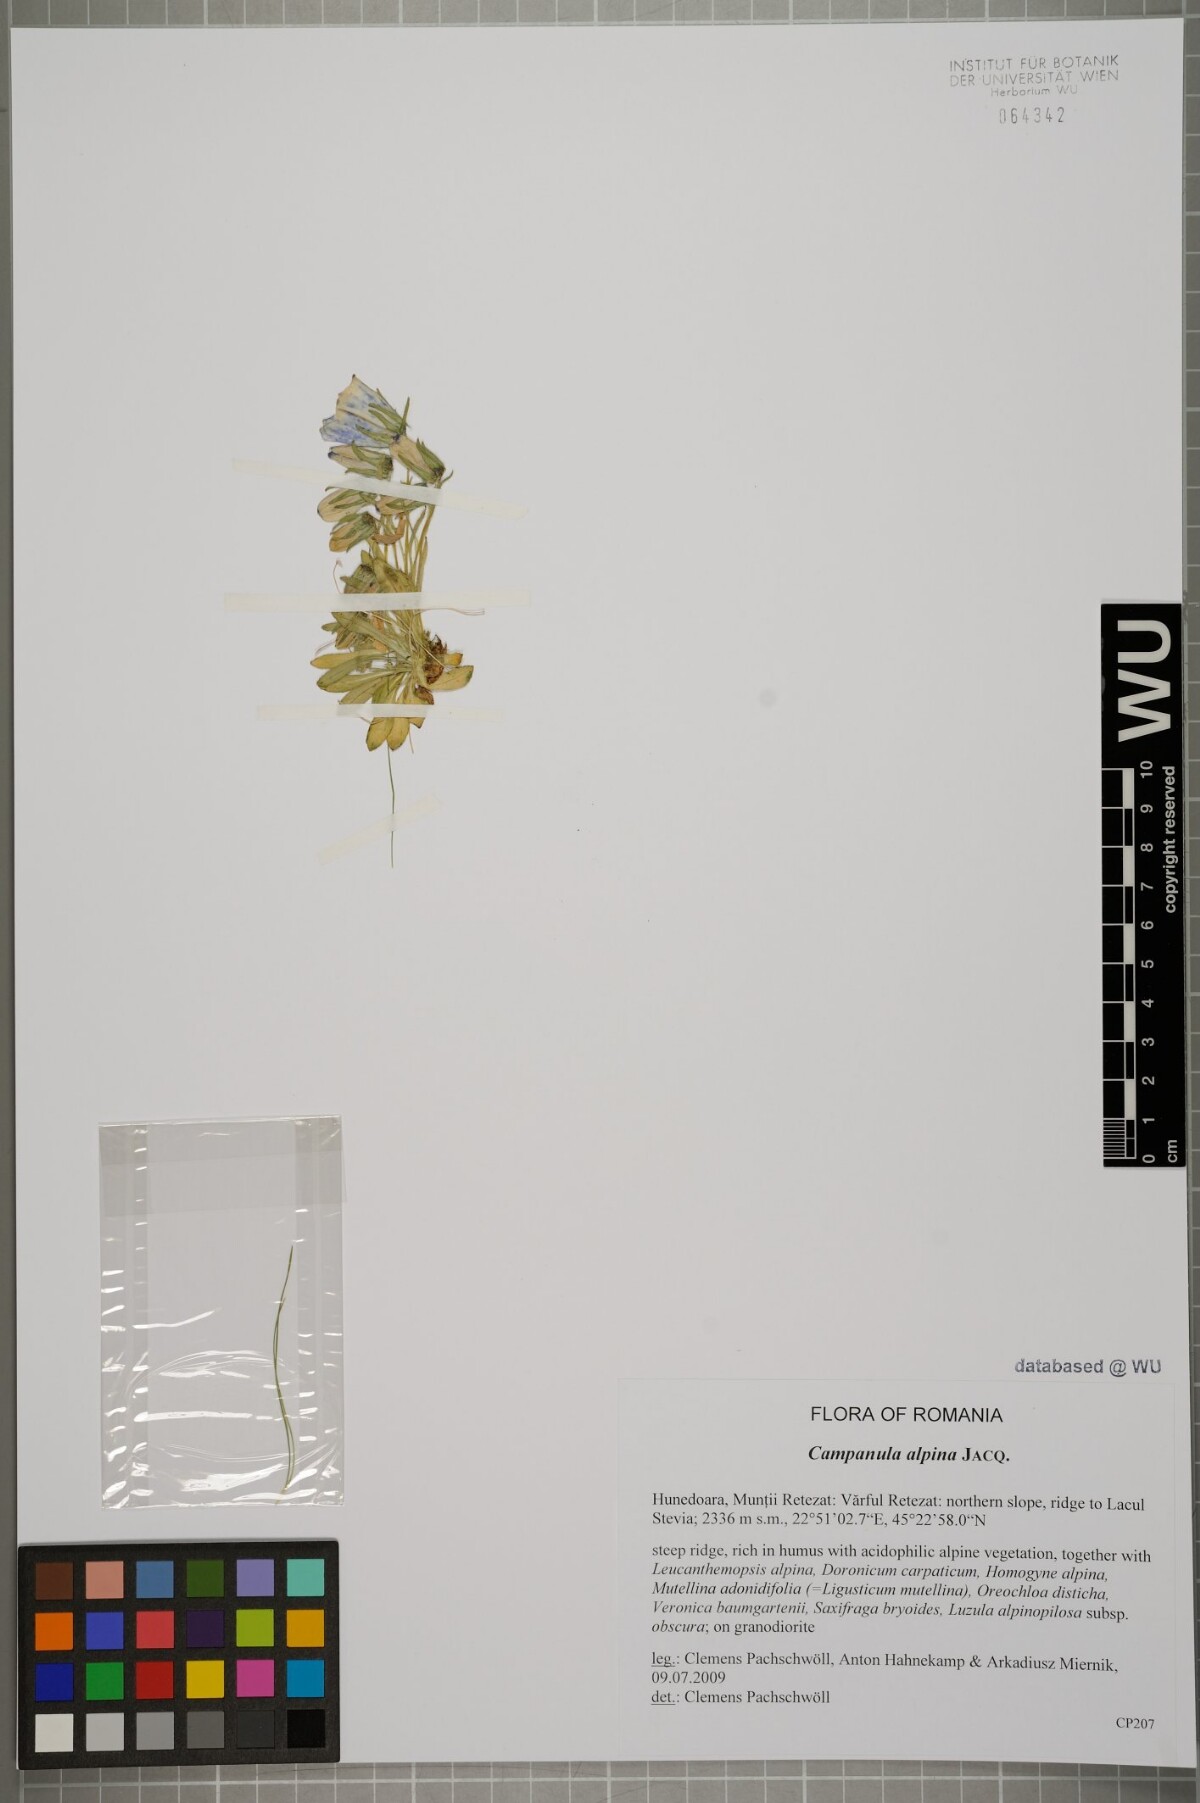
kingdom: Plantae
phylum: Tracheophyta
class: Magnoliopsida
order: Asterales
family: Campanulaceae
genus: Campanula
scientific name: Campanula alpina
